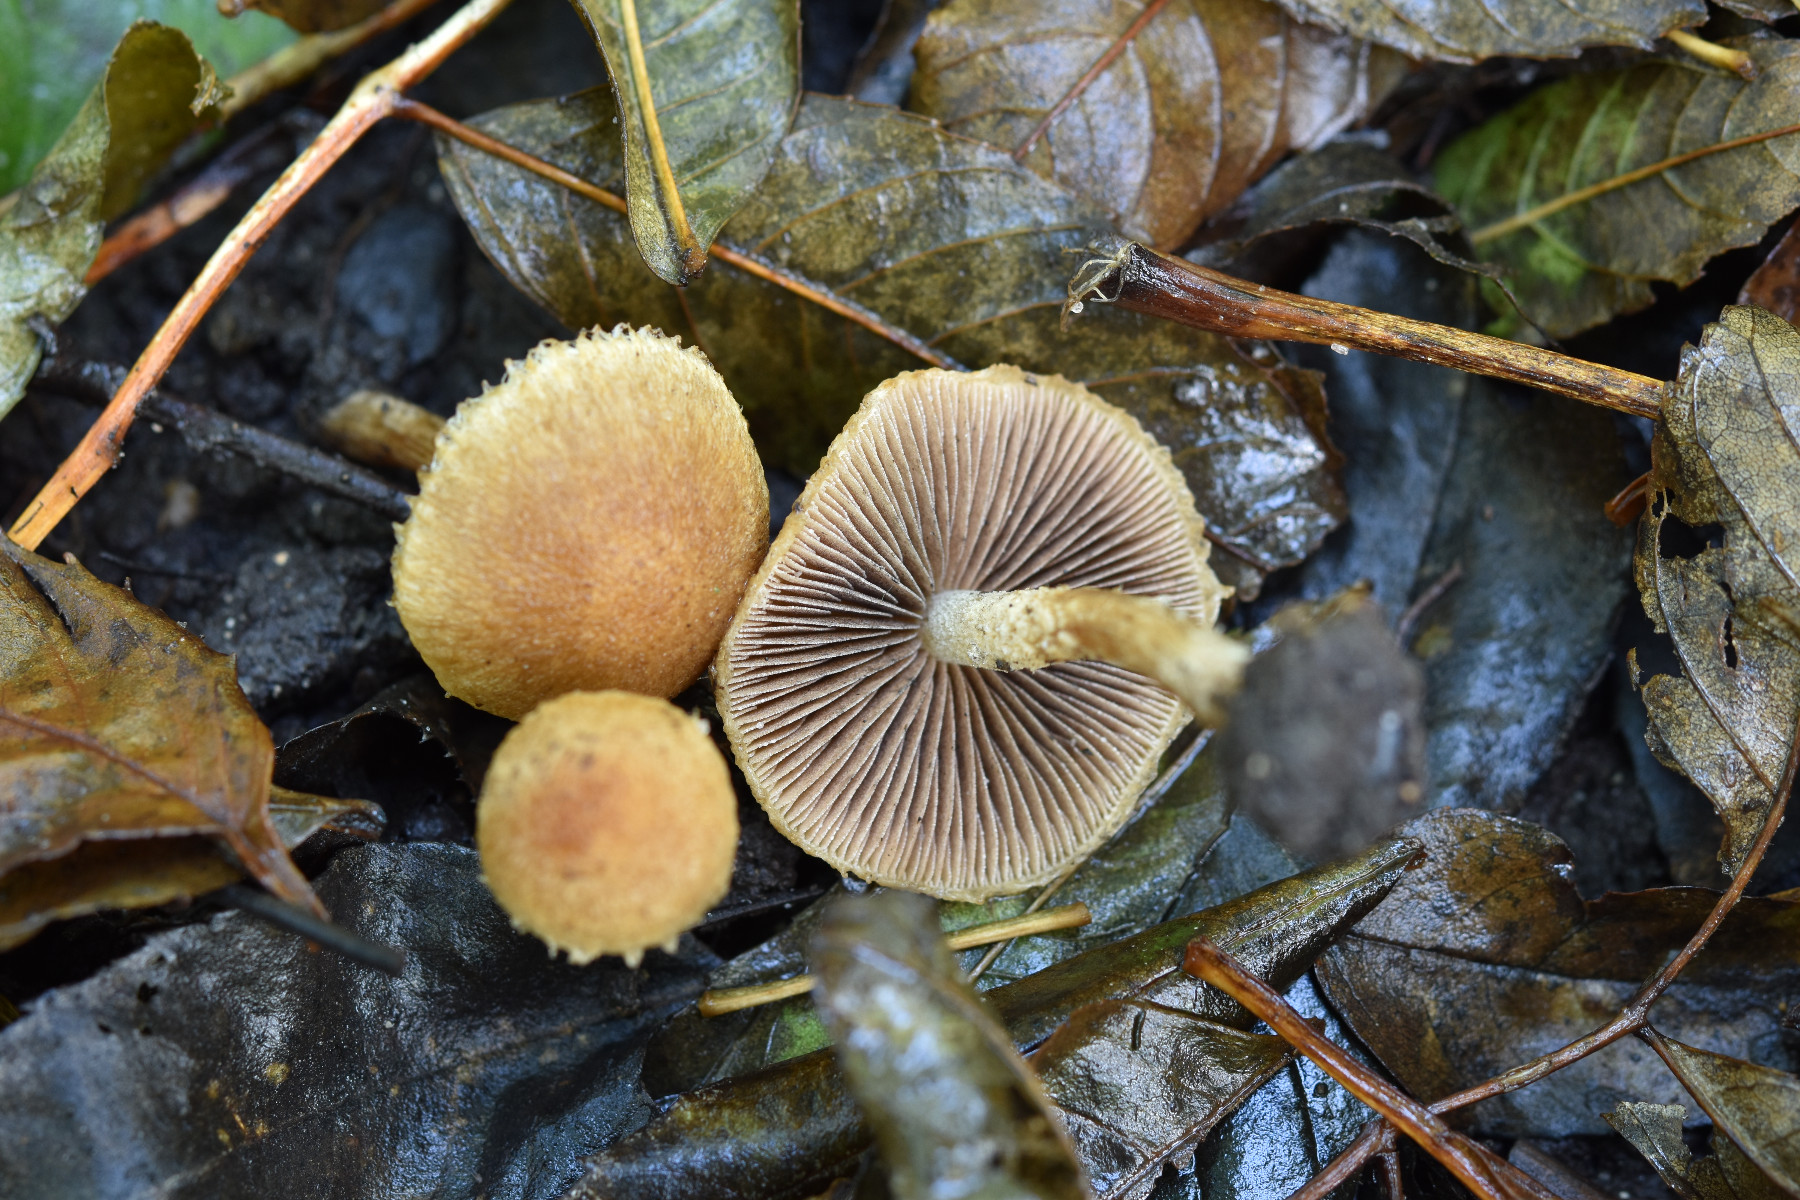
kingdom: Fungi
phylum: Basidiomycota
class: Agaricomycetes
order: Agaricales
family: Psathyrellaceae
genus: Lacrymaria
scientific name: Lacrymaria lacrymabunda
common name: grædende mørkhat
